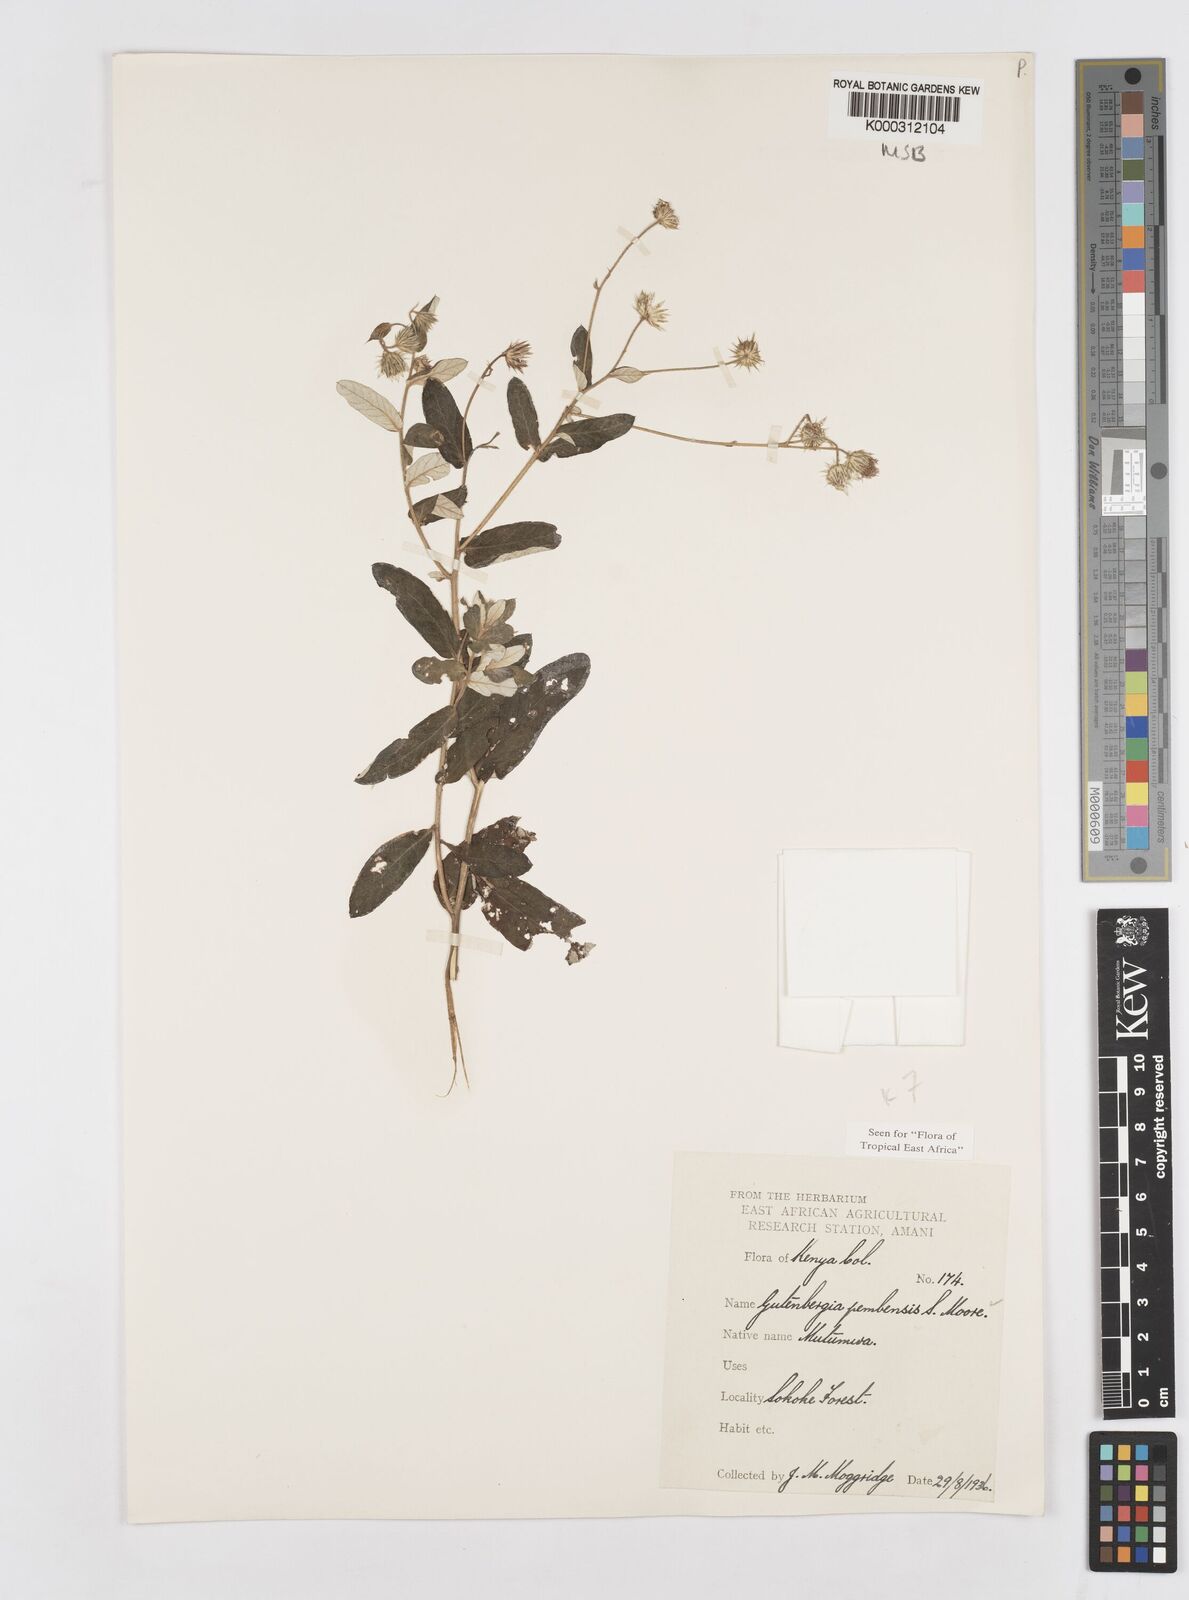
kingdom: Plantae
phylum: Tracheophyta
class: Magnoliopsida
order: Asterales
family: Asteraceae
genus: Gutenbergia
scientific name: Gutenbergia pembensis
